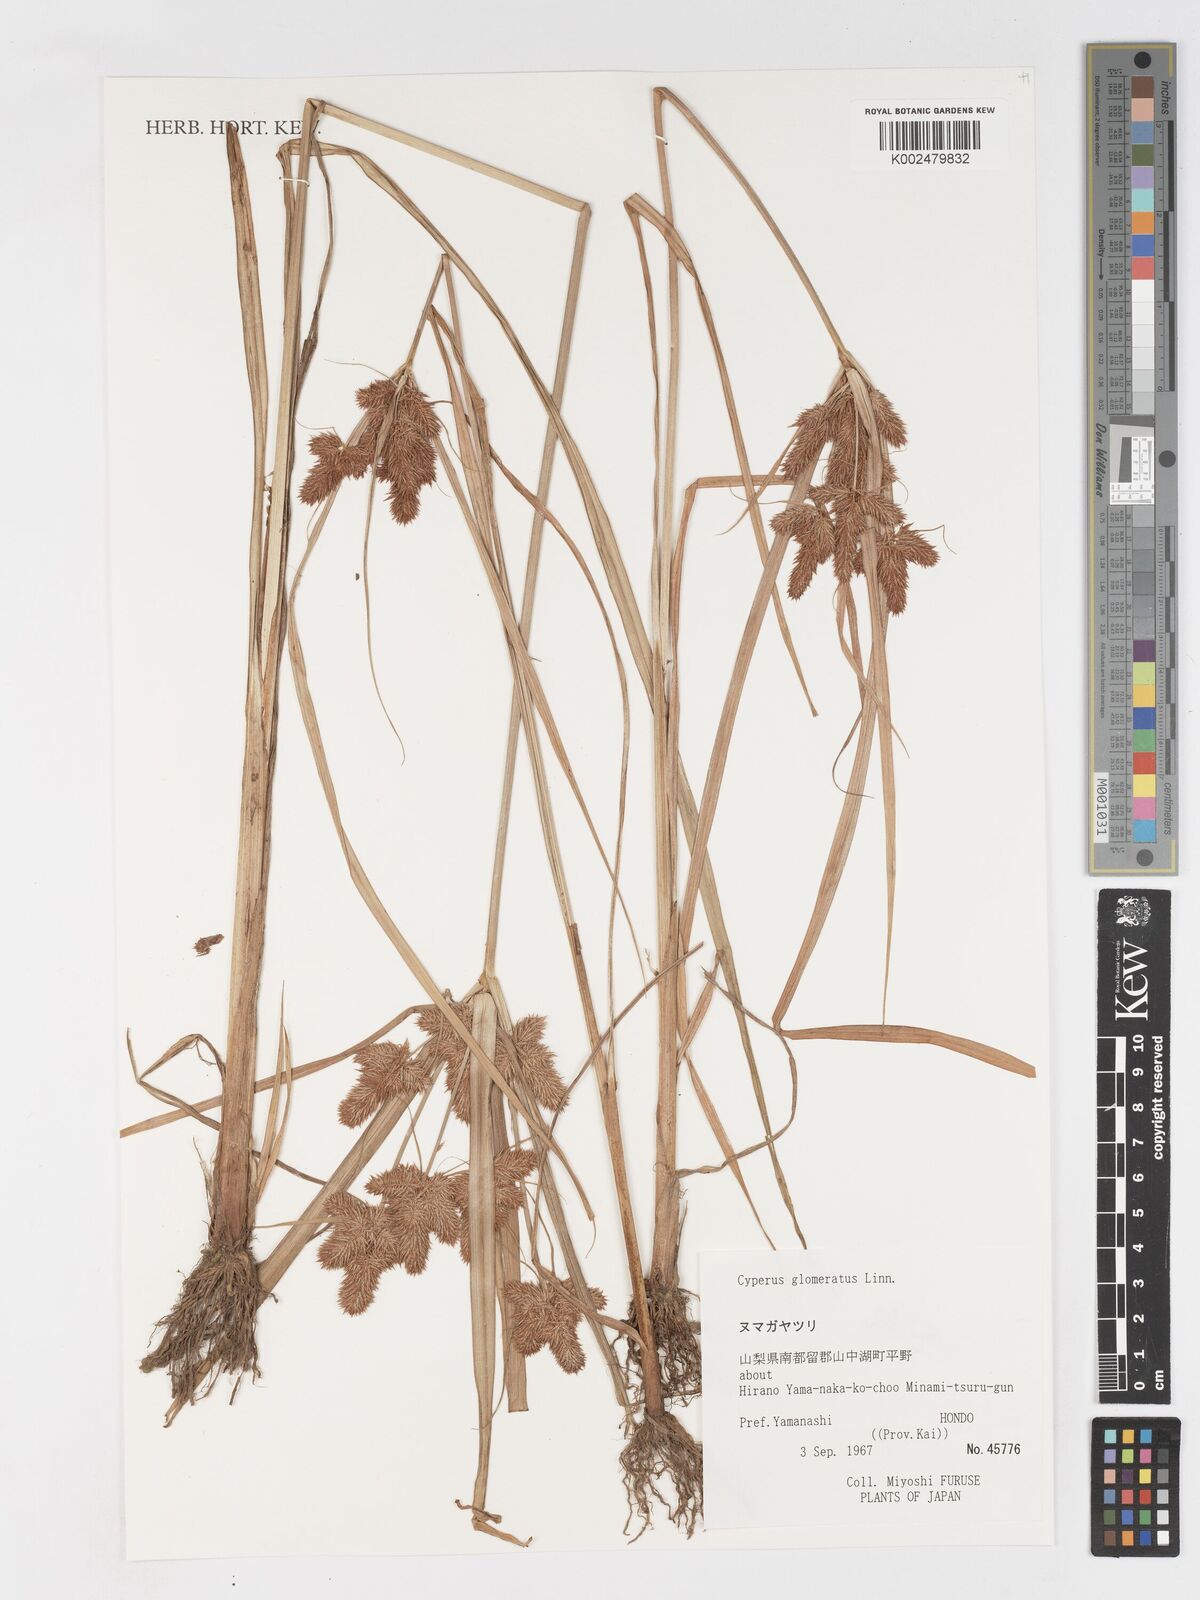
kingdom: Plantae
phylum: Tracheophyta
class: Liliopsida
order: Poales
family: Cyperaceae
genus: Cyperus
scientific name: Cyperus glomeratus
